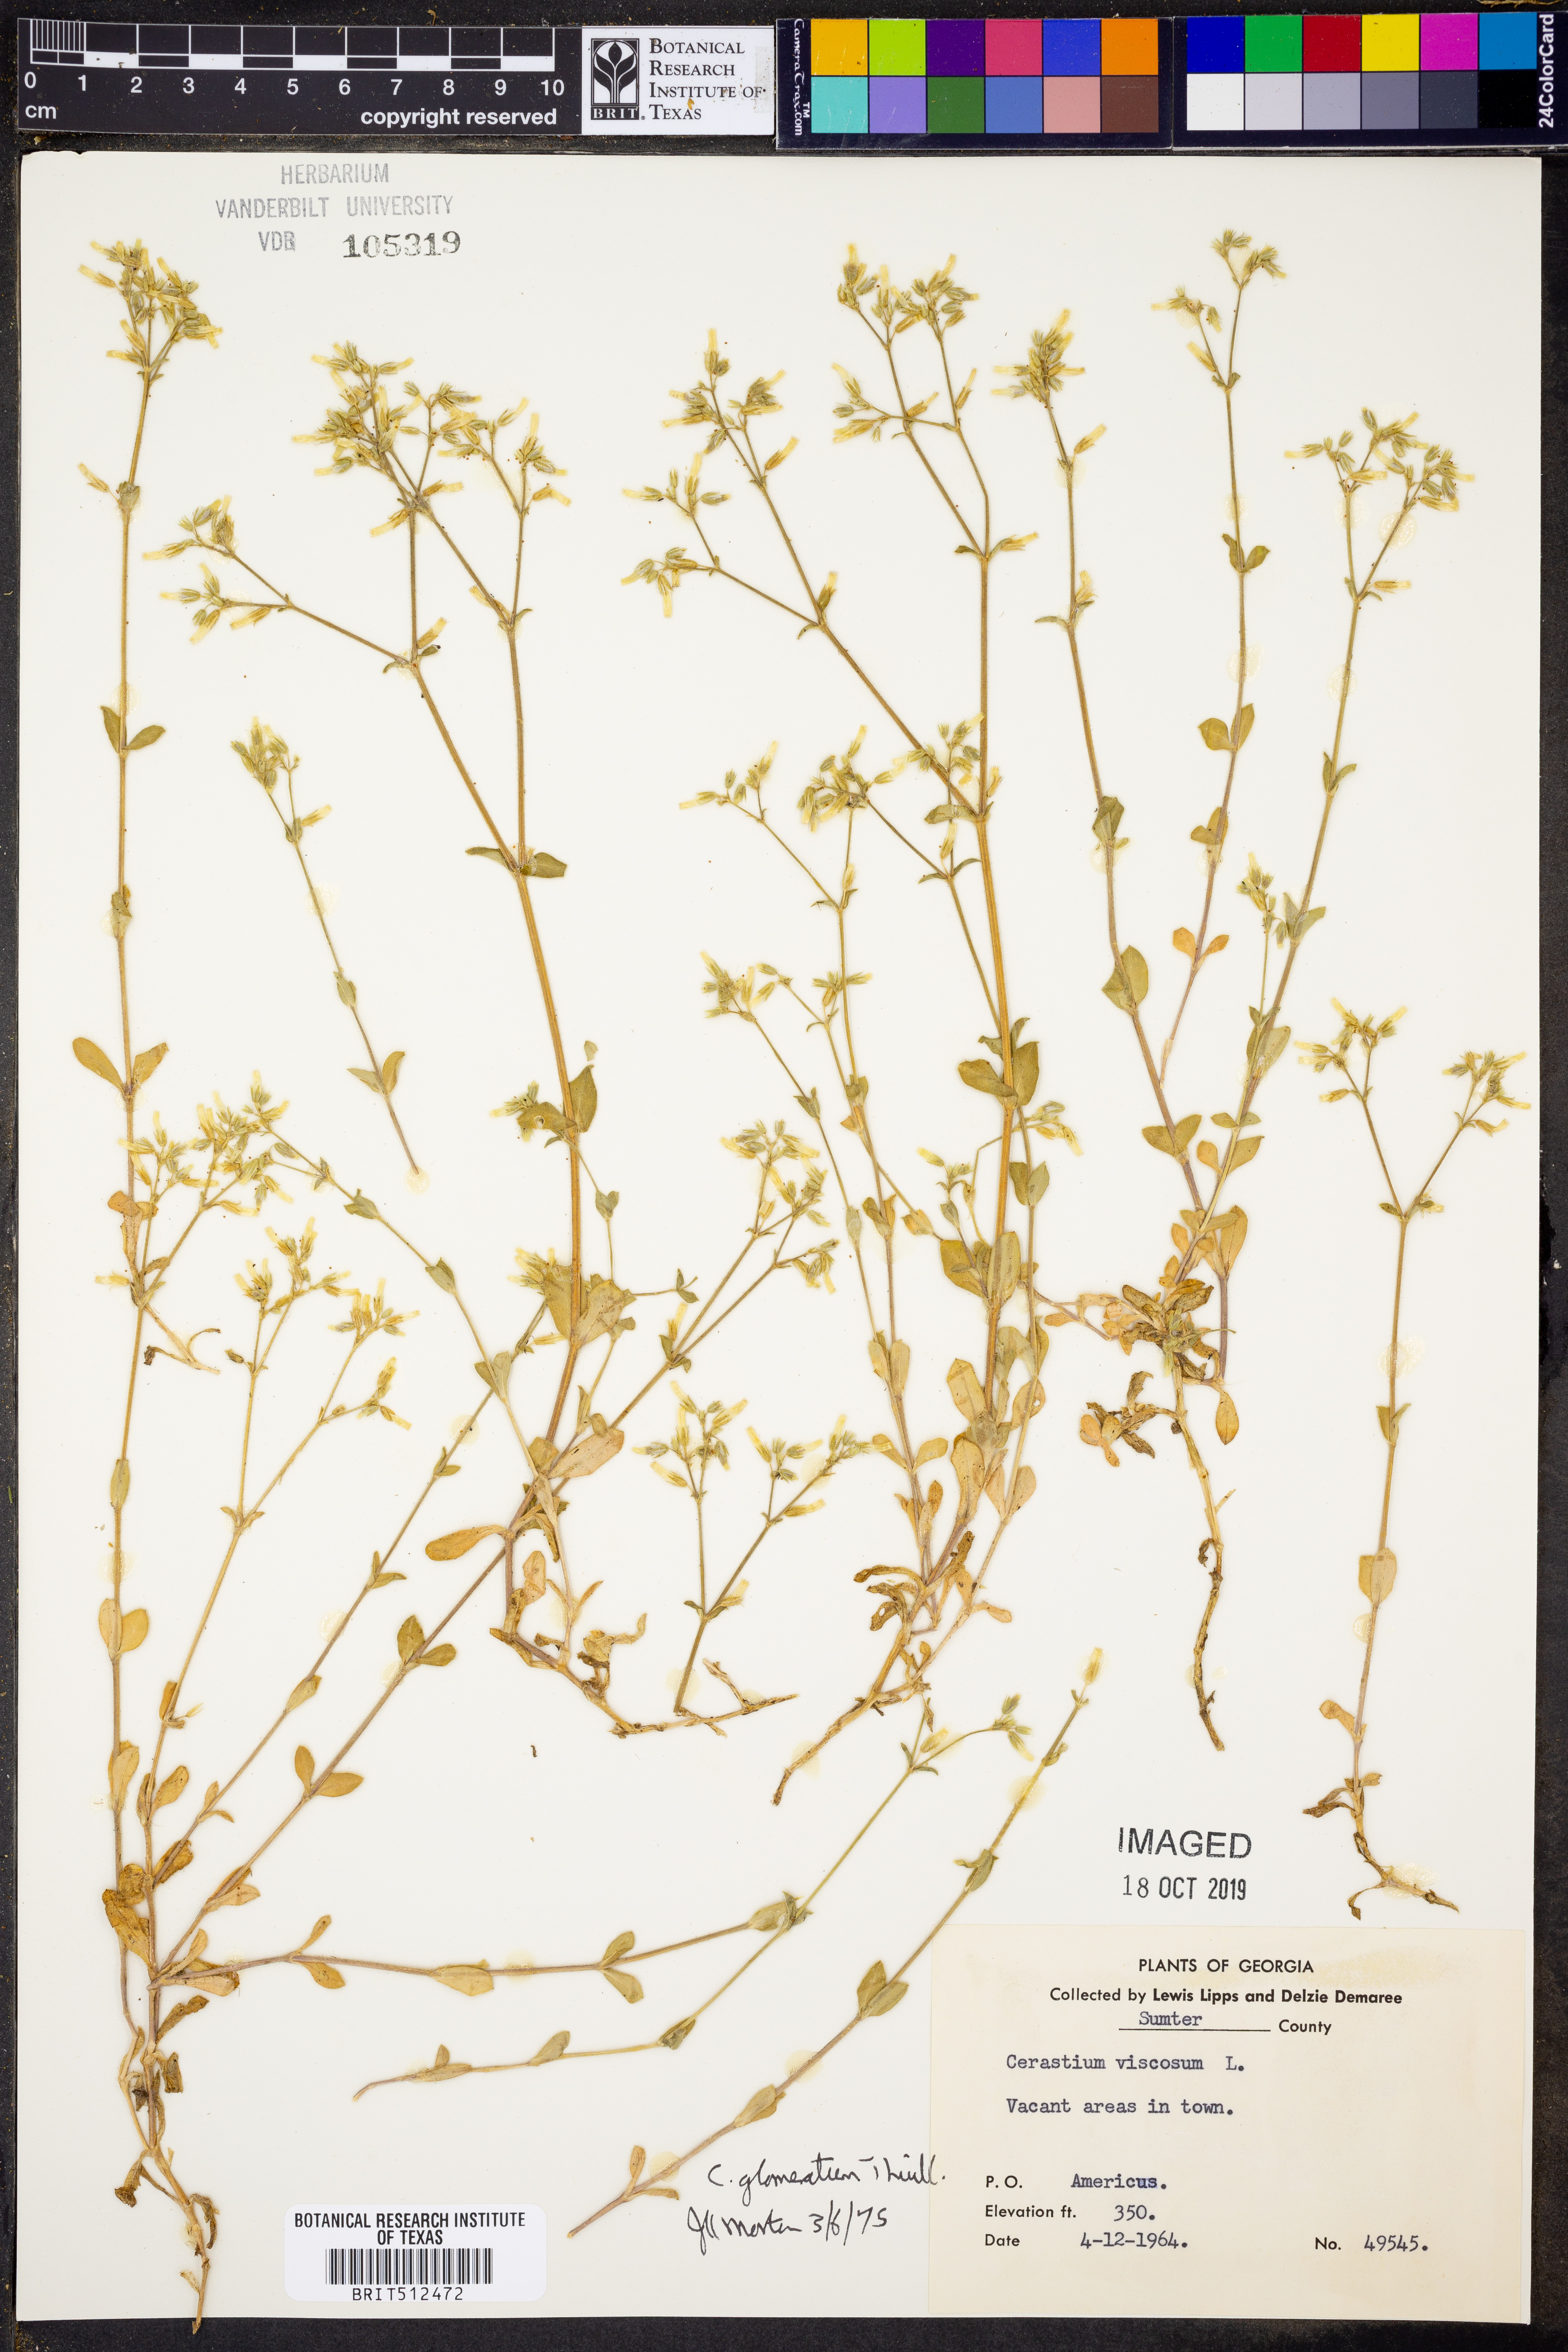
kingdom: Plantae
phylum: Tracheophyta
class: Magnoliopsida
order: Caryophyllales
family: Caryophyllaceae
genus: Cerastium
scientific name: Cerastium glomeratum
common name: Sticky chickweed
